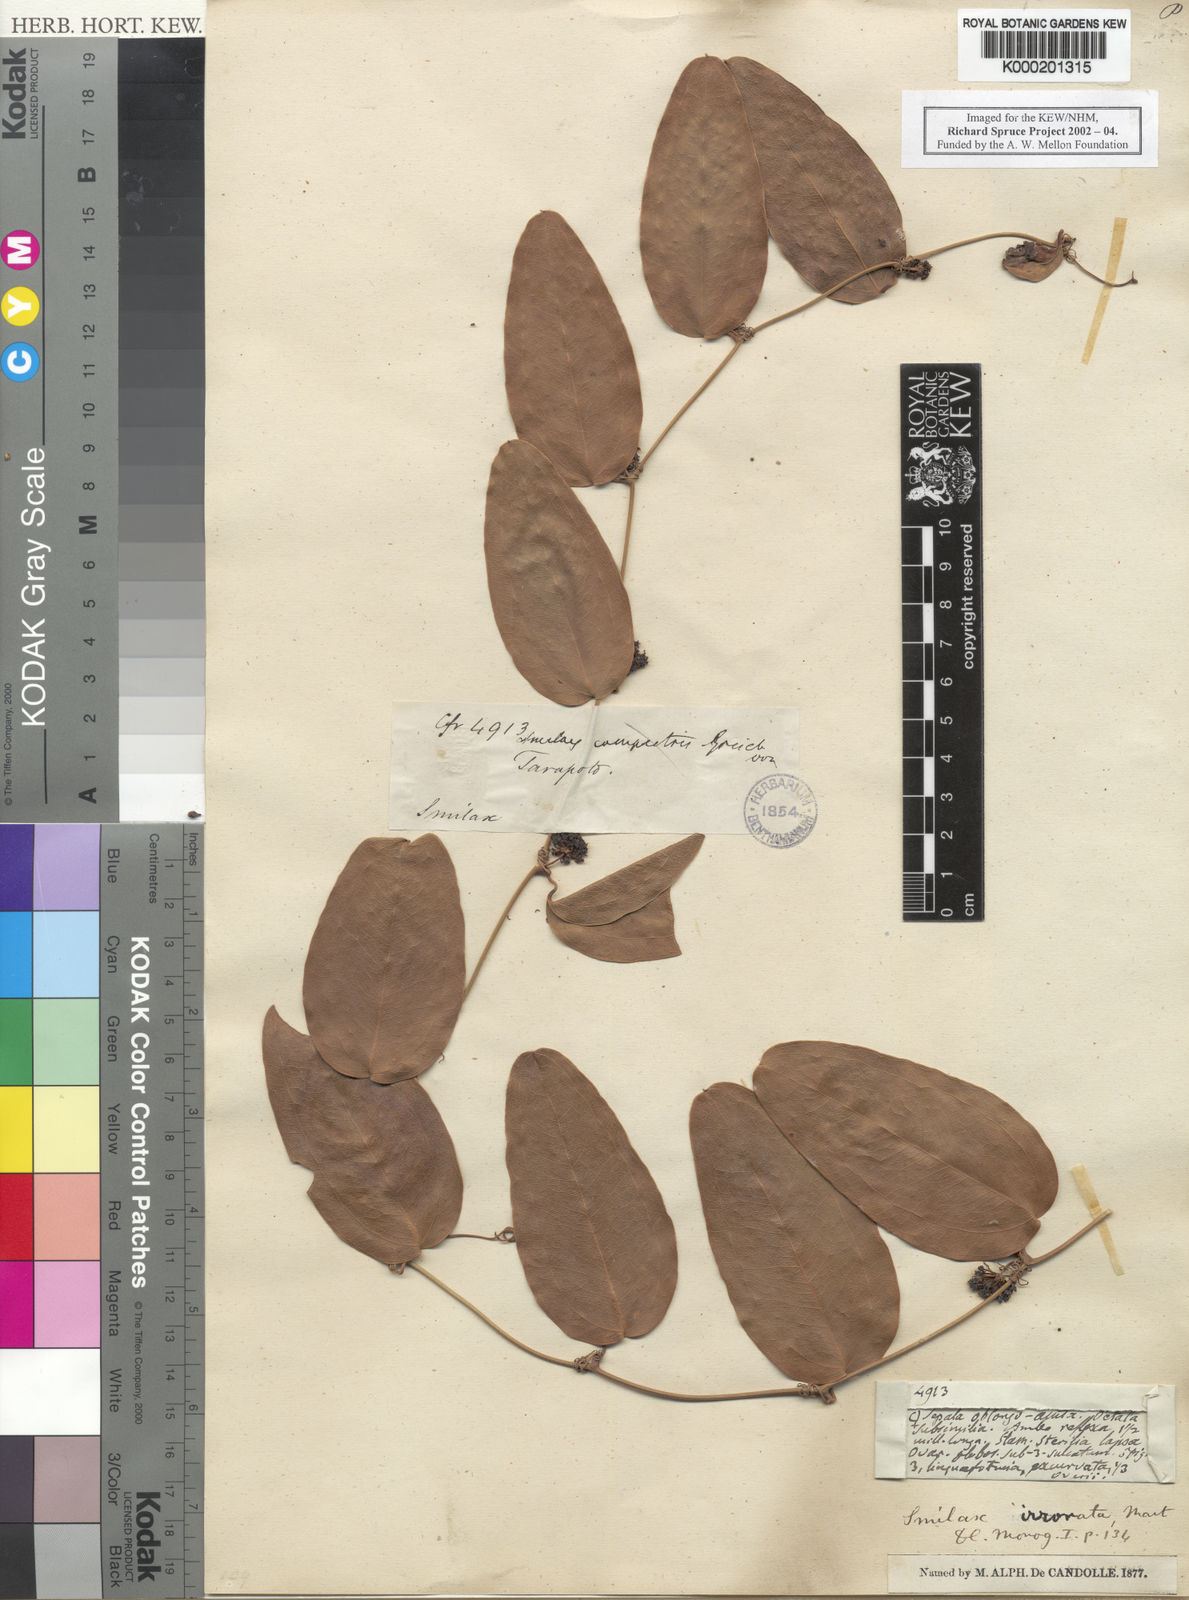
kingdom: Plantae
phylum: Tracheophyta
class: Liliopsida
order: Liliales
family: Smilacaceae
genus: Smilax
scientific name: Smilax irrorata
